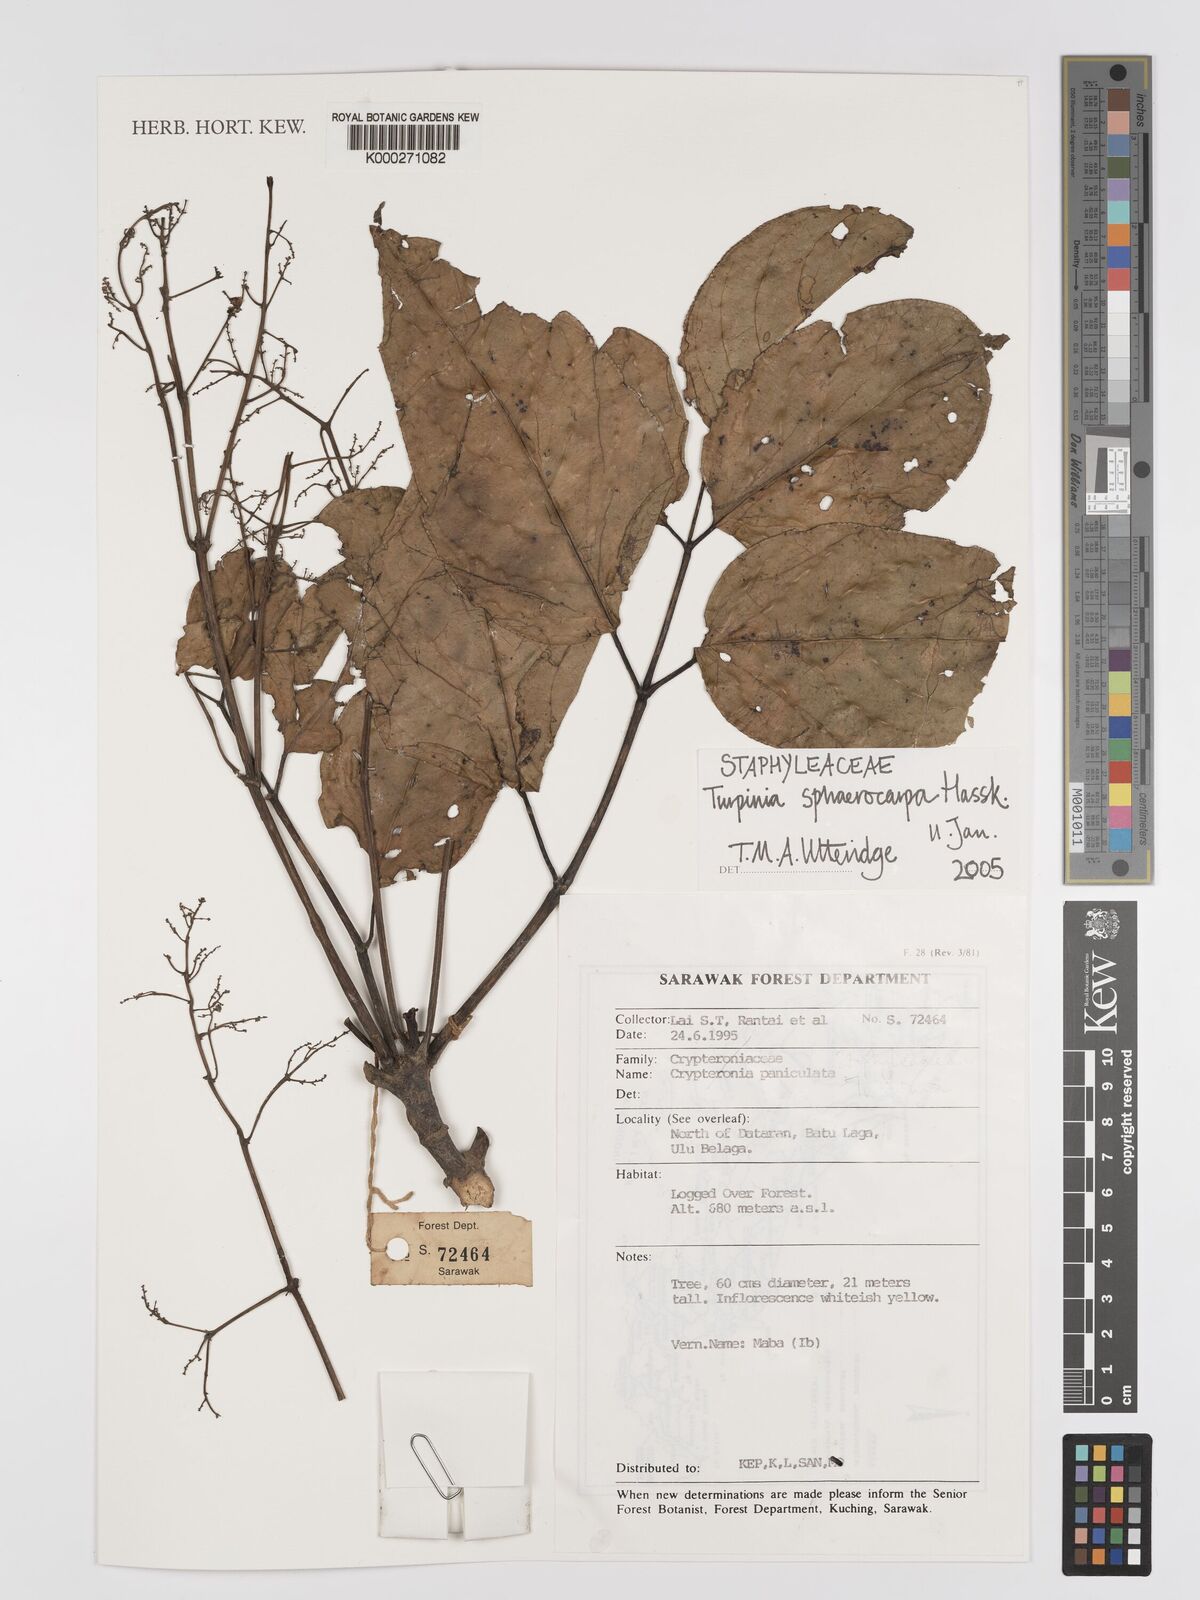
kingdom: Plantae
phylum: Tracheophyta
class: Magnoliopsida
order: Crossosomatales
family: Staphyleaceae
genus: Dalrympelea
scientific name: Dalrympelea sphaerocarpa
